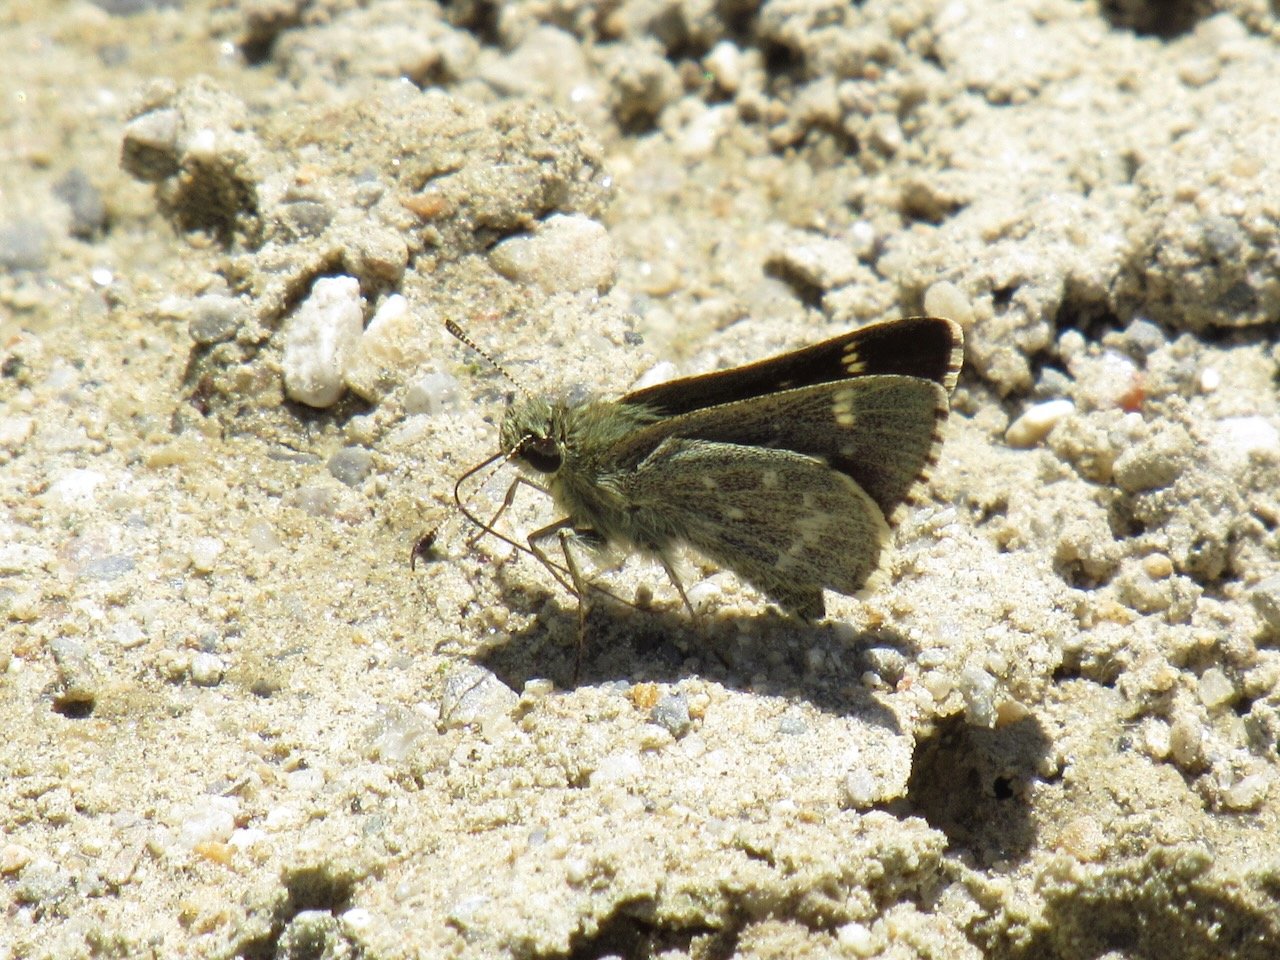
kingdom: Animalia
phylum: Arthropoda
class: Insecta
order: Lepidoptera
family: Hesperiidae
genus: Mastor
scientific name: Mastor hegon
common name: Pepper and Salt Skipper
